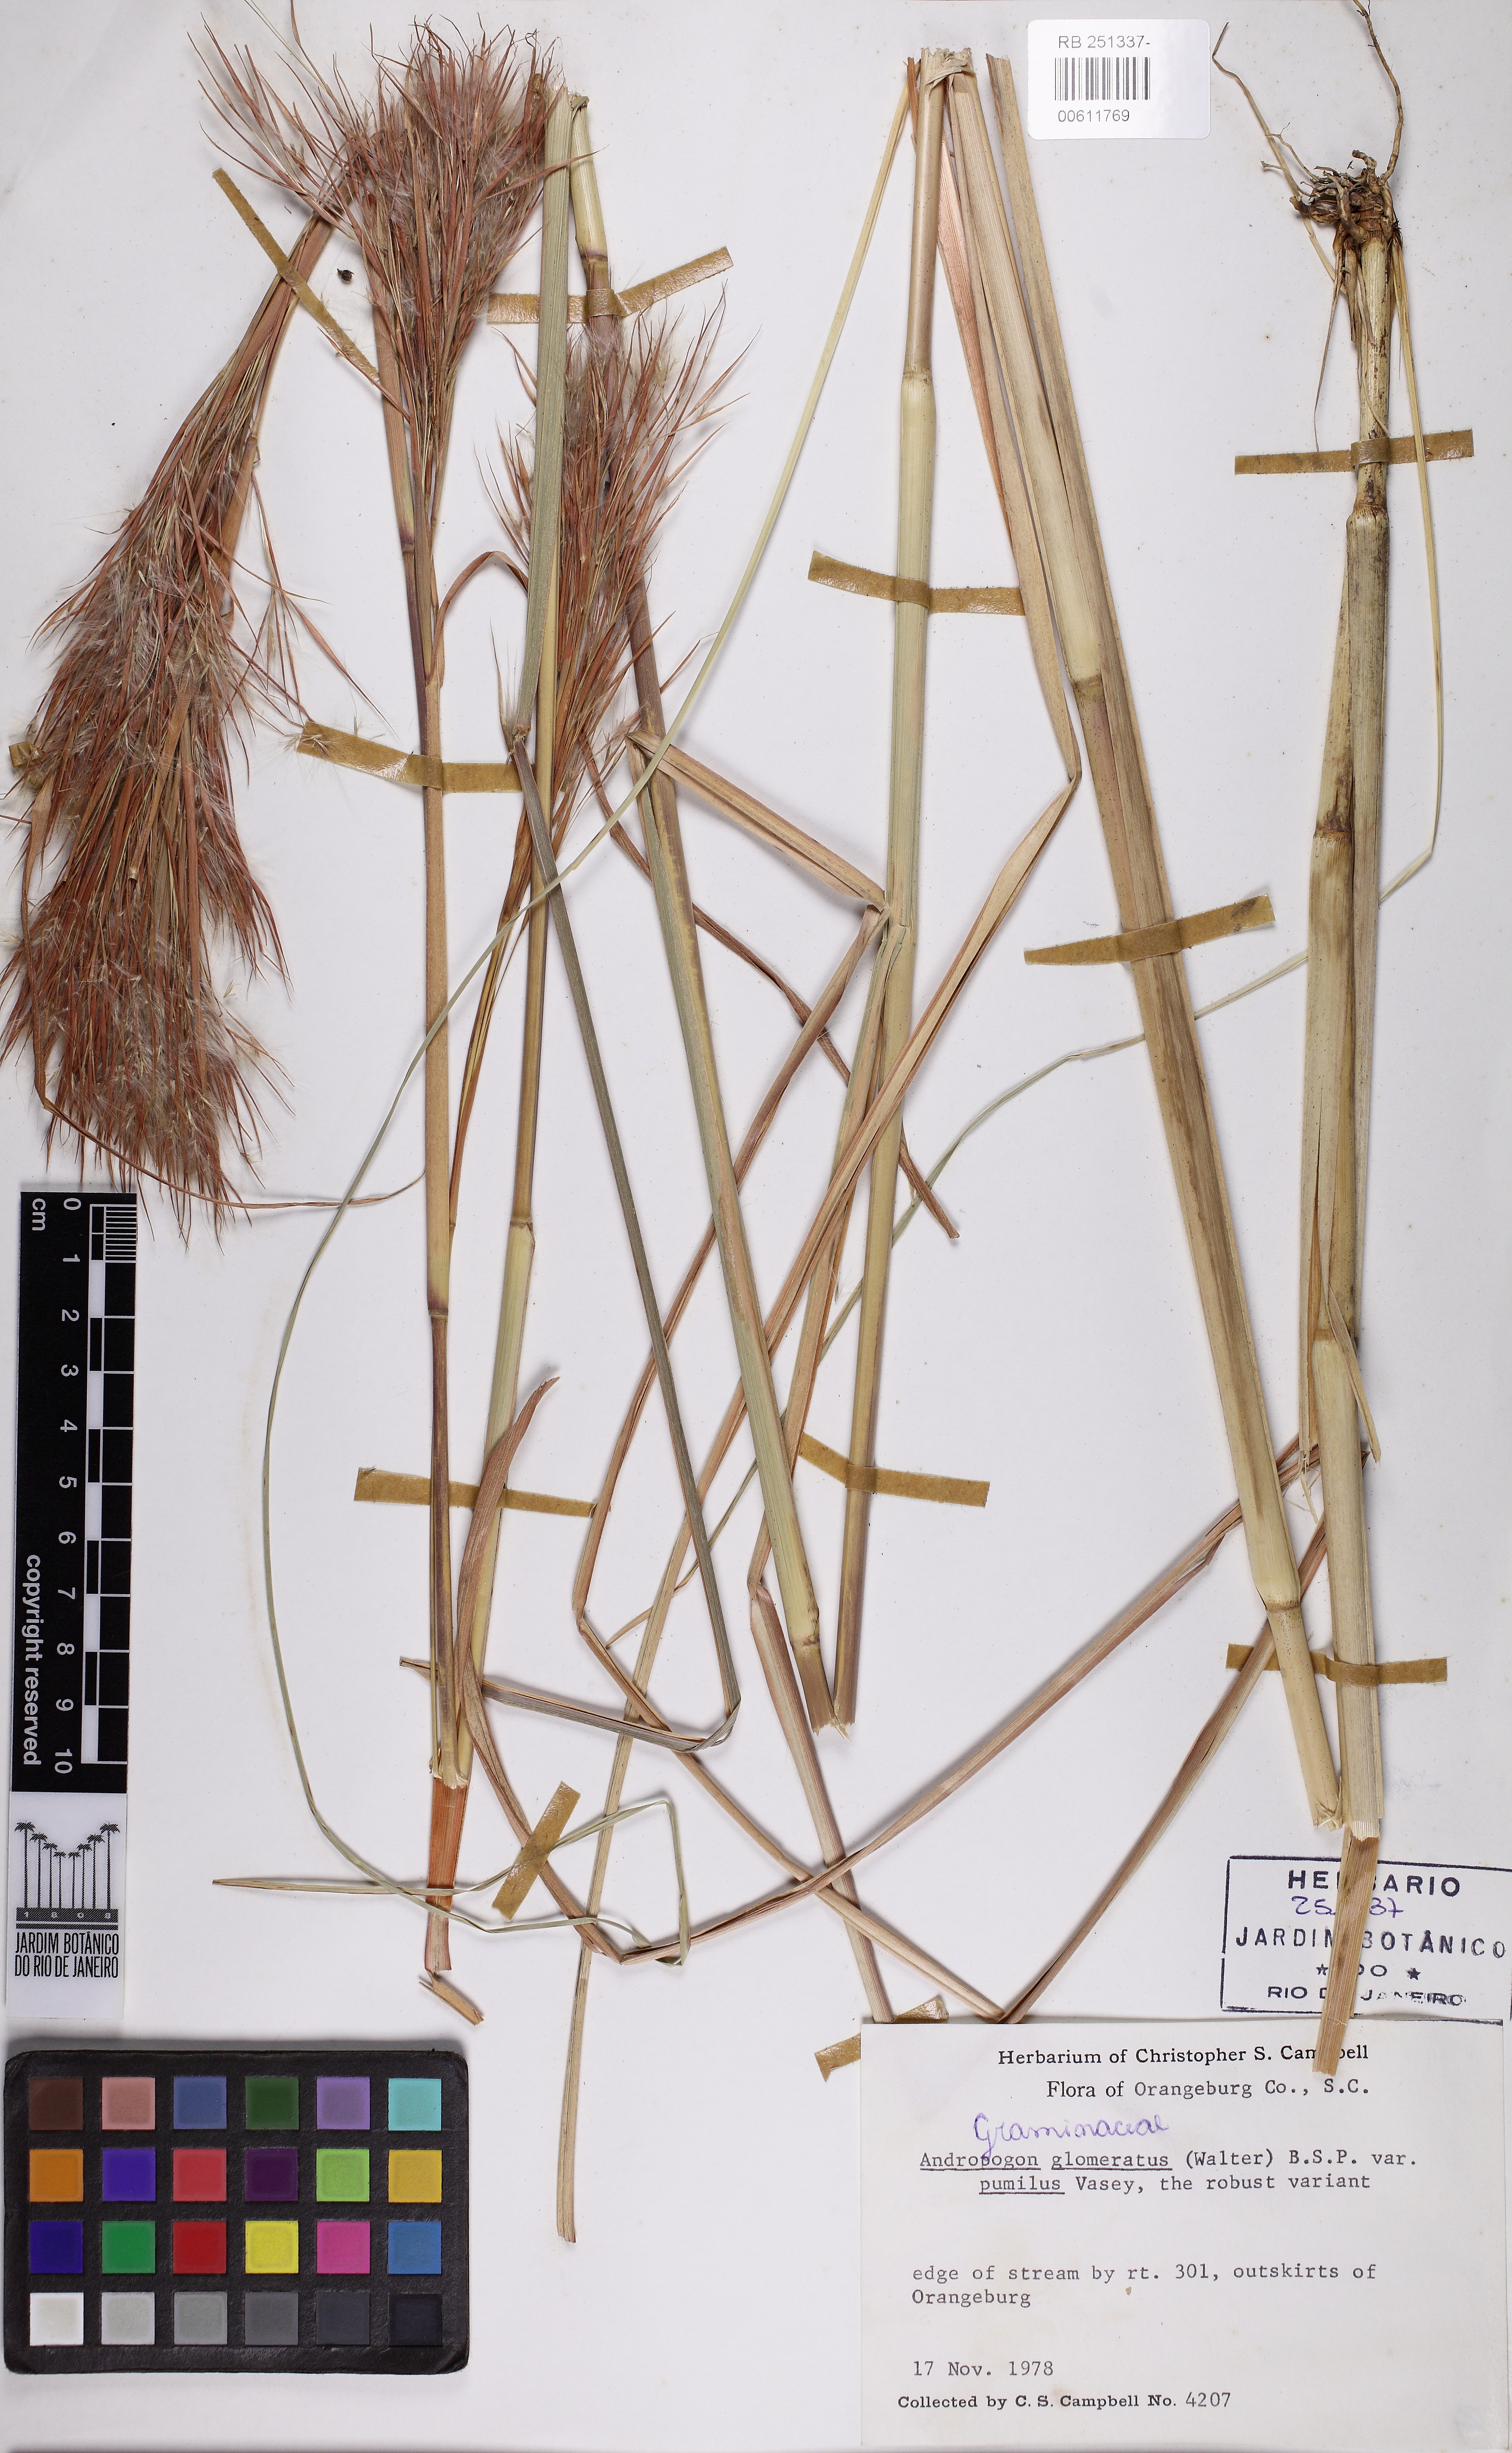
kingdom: Plantae
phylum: Tracheophyta
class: Liliopsida
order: Poales
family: Poaceae
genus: Andropogon
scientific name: Andropogon tenuispatheus
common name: Bushy bluestem
